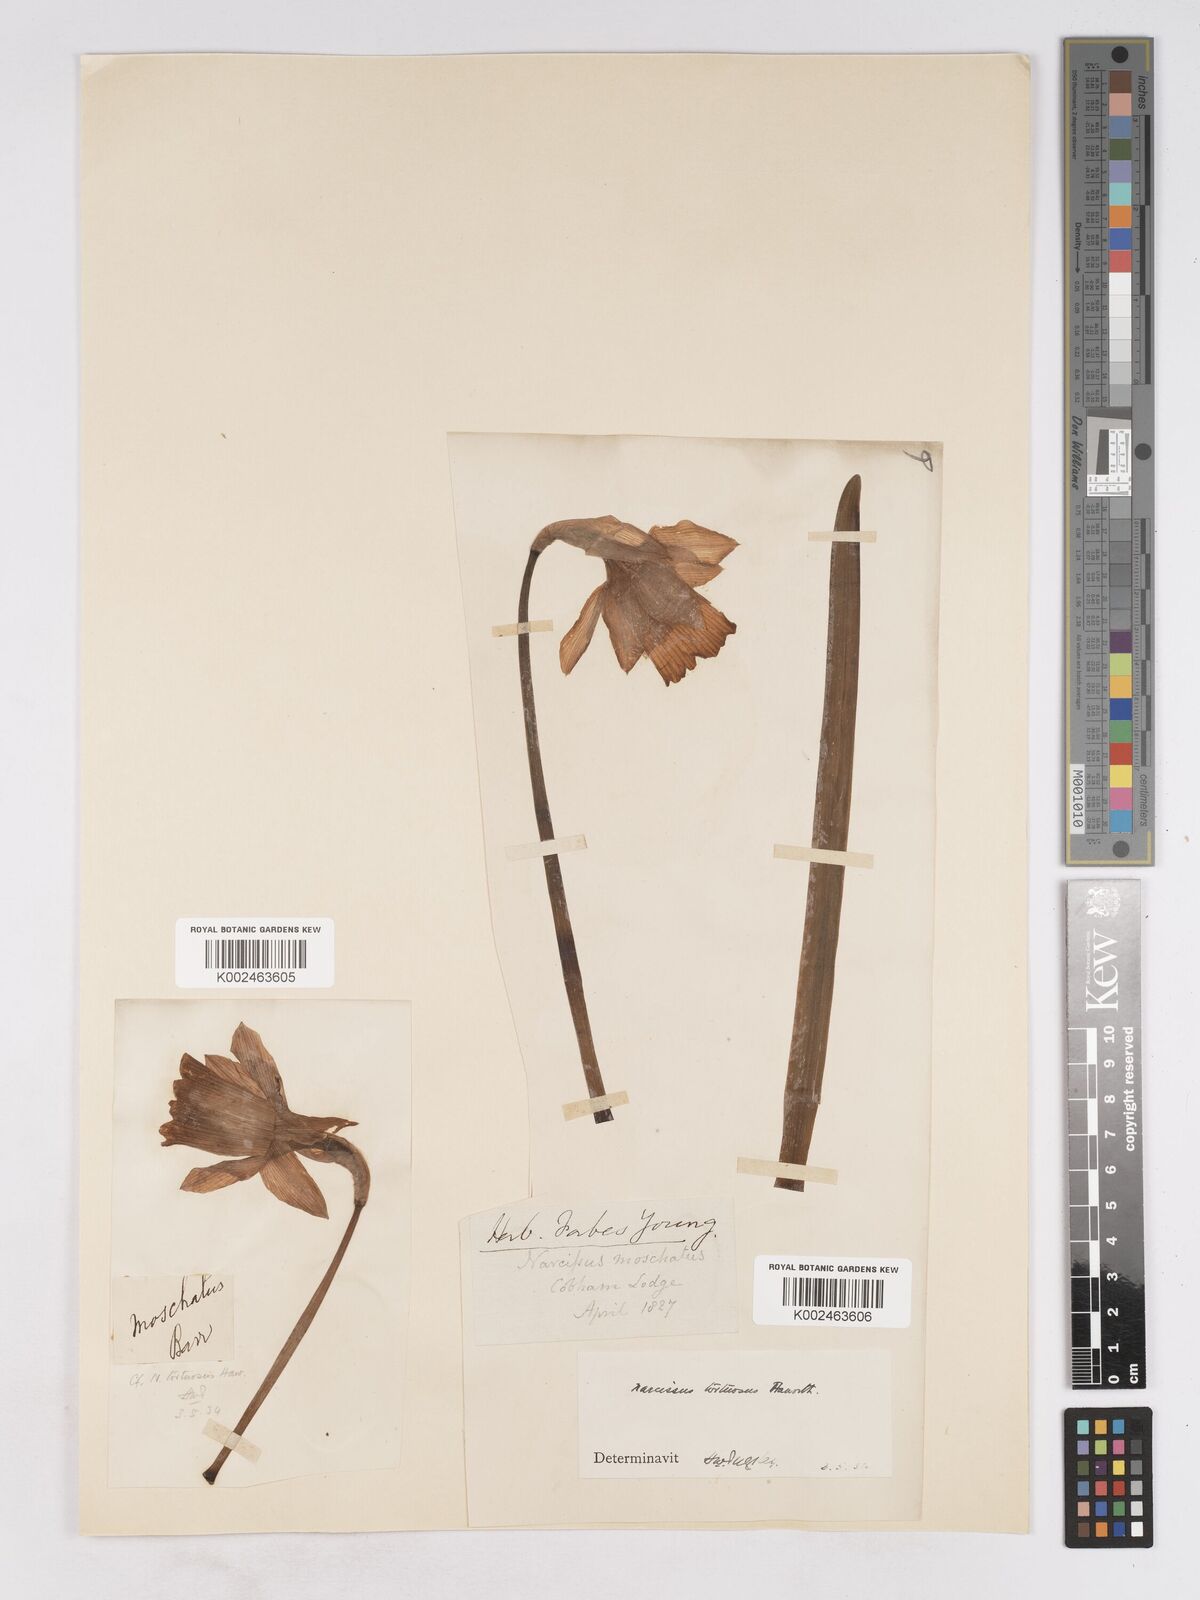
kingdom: Plantae
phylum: Tracheophyta
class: Liliopsida
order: Asparagales
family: Amaryllidaceae
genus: Narcissus
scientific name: Narcissus moschatus
